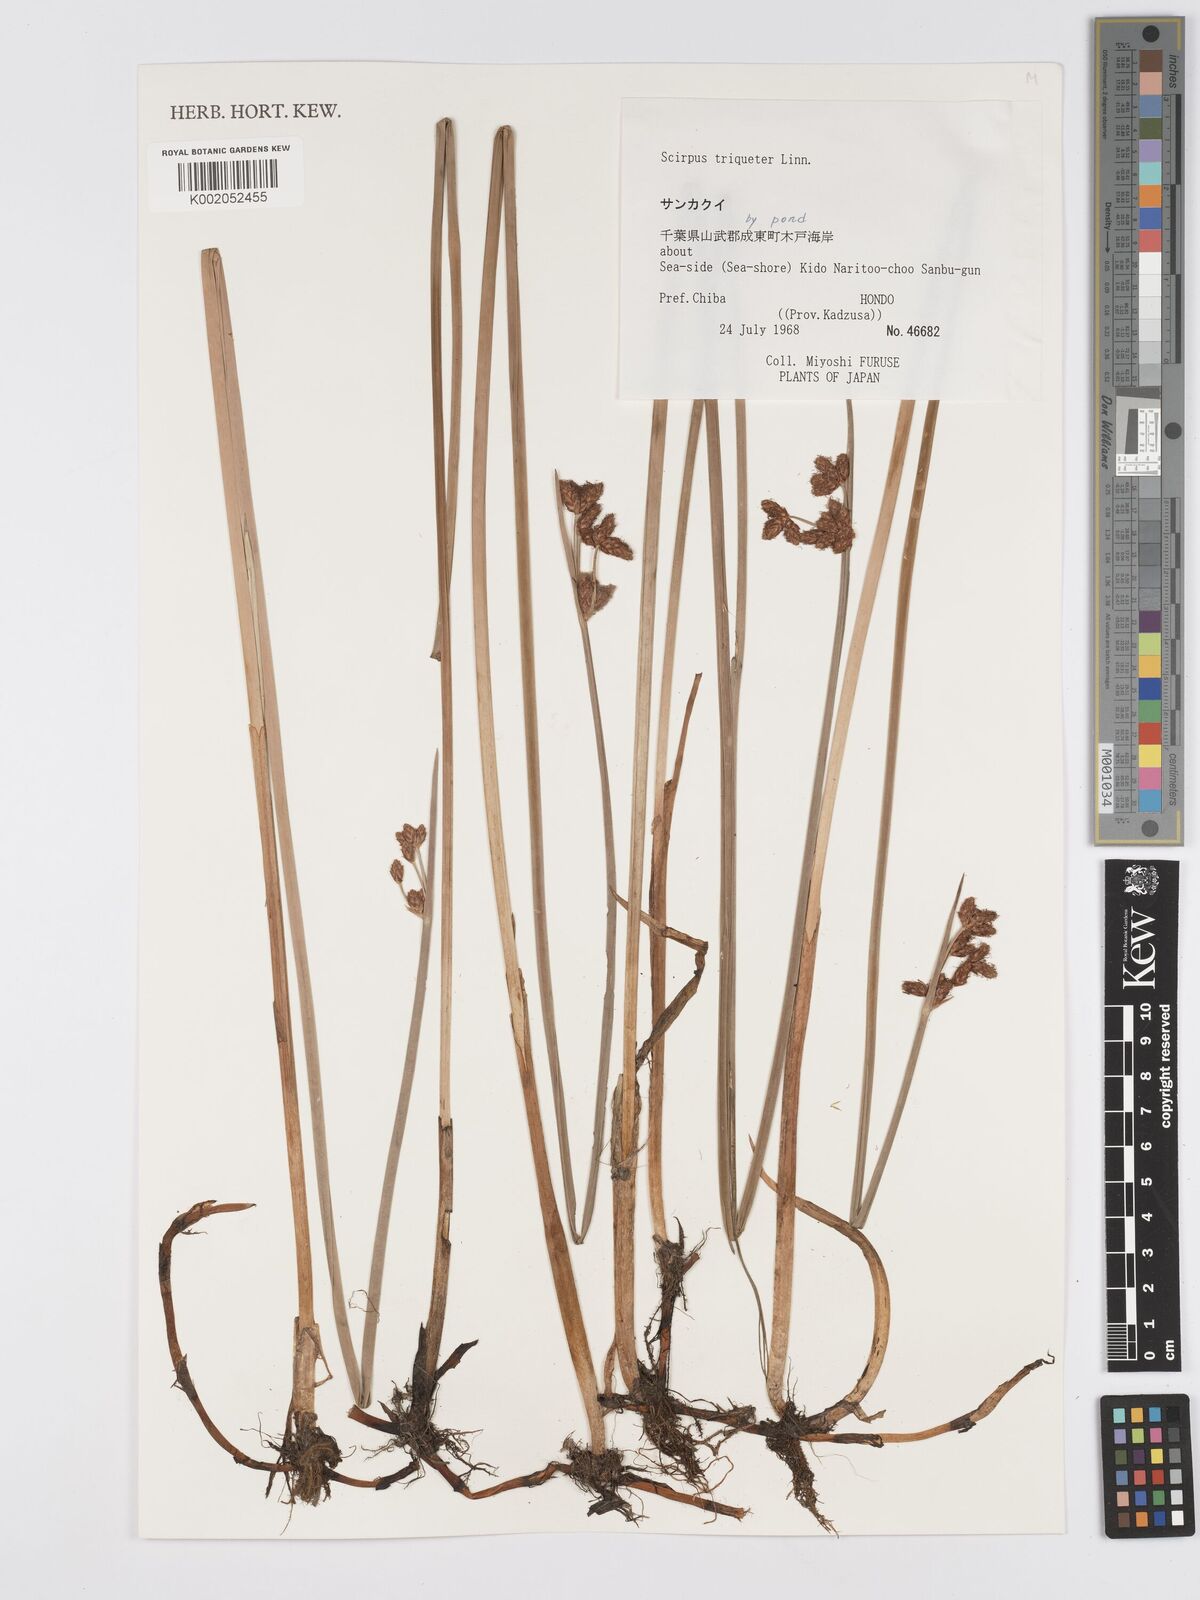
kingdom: Plantae
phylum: Tracheophyta
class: Liliopsida
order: Poales
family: Cyperaceae
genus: Schoenoplectus
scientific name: Schoenoplectus triqueter
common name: Triangular club-rush
